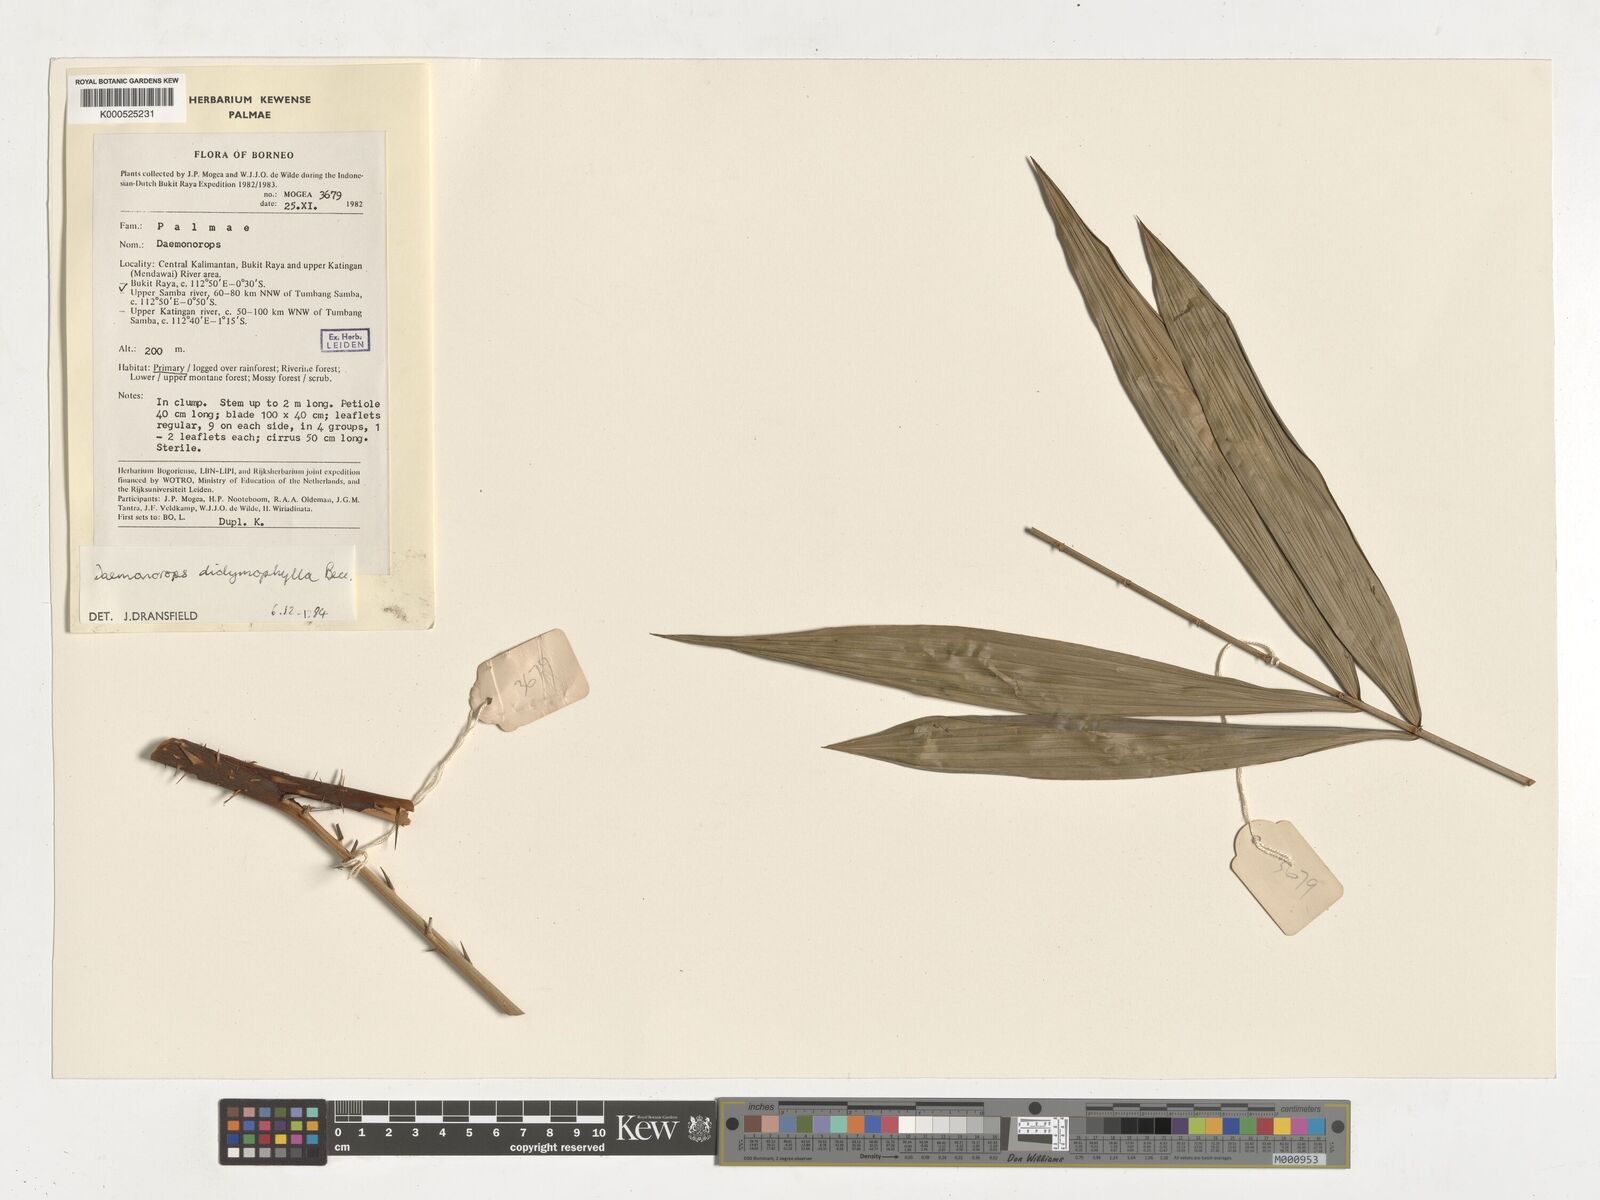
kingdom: Plantae
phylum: Tracheophyta
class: Liliopsida
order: Arecales
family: Arecaceae
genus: Calamus
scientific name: Calamus gracilipes
